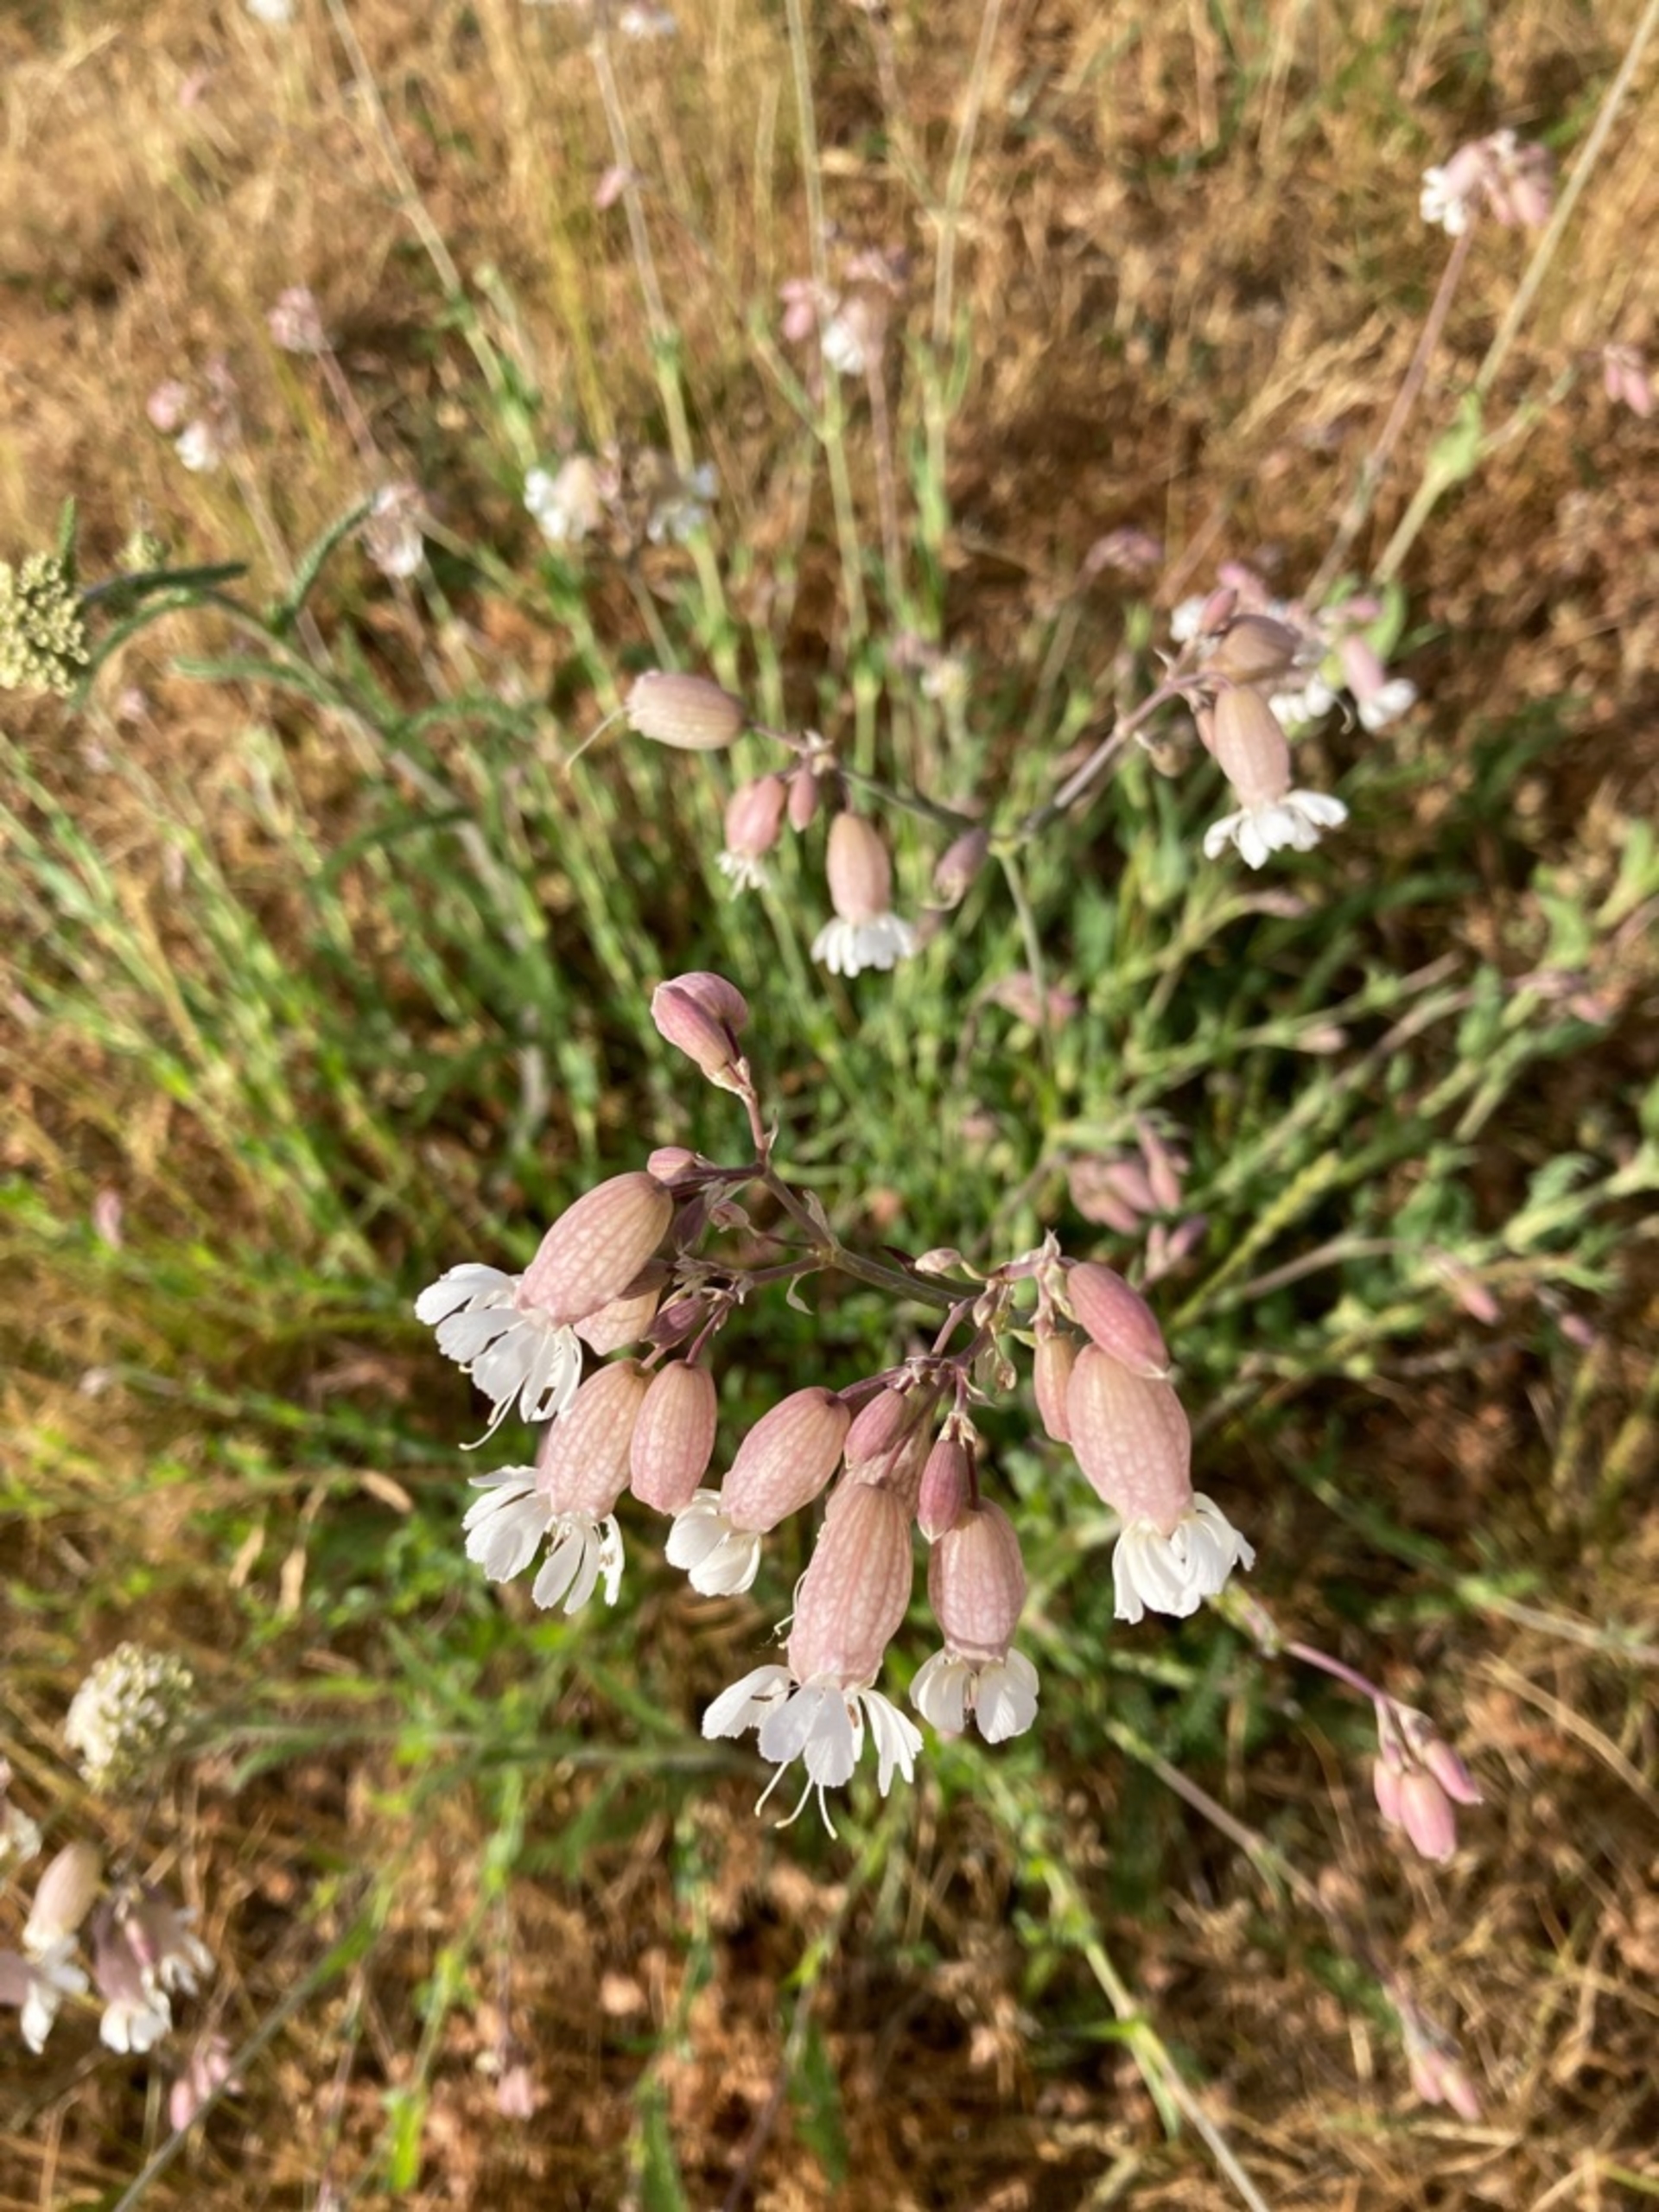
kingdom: Plantae
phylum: Tracheophyta
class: Magnoliopsida
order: Caryophyllales
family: Caryophyllaceae
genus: Silene
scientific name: Silene vulgaris
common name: Blæresmælde
